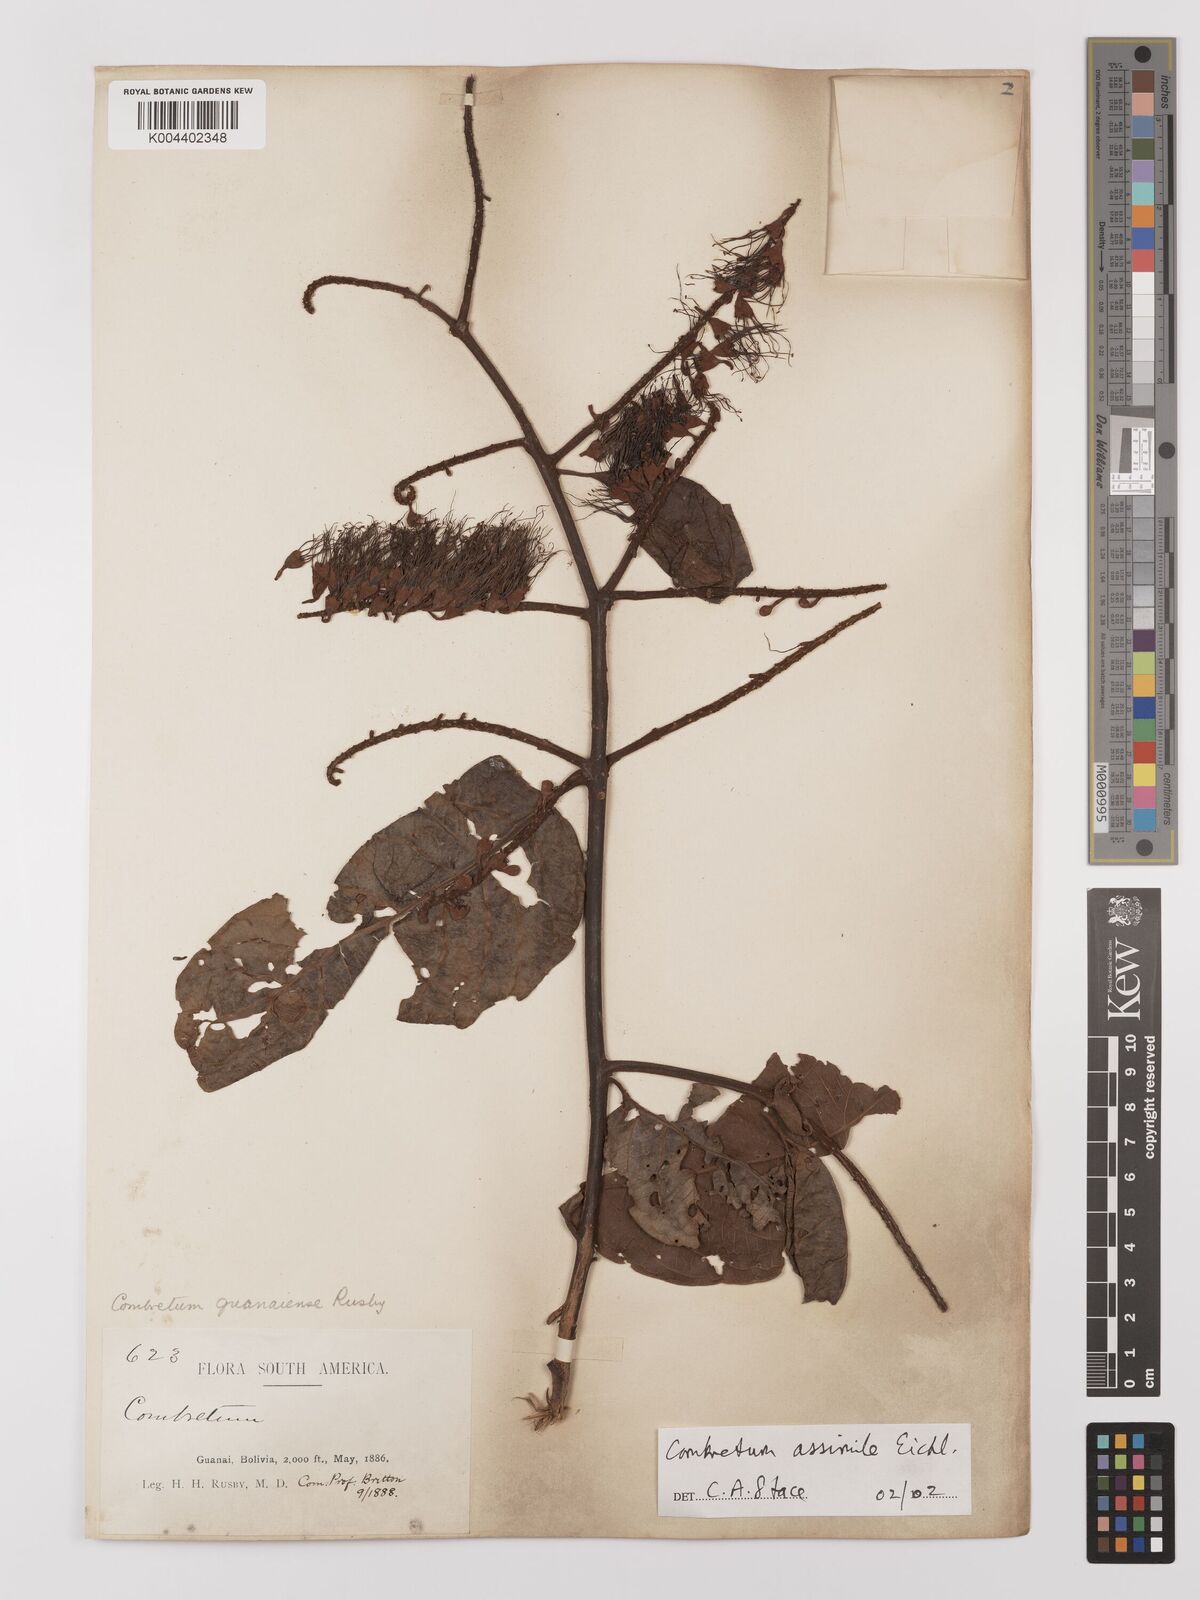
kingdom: Plantae
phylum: Tracheophyta
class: Magnoliopsida
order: Myrtales
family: Combretaceae
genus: Combretum
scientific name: Combretum assimile
